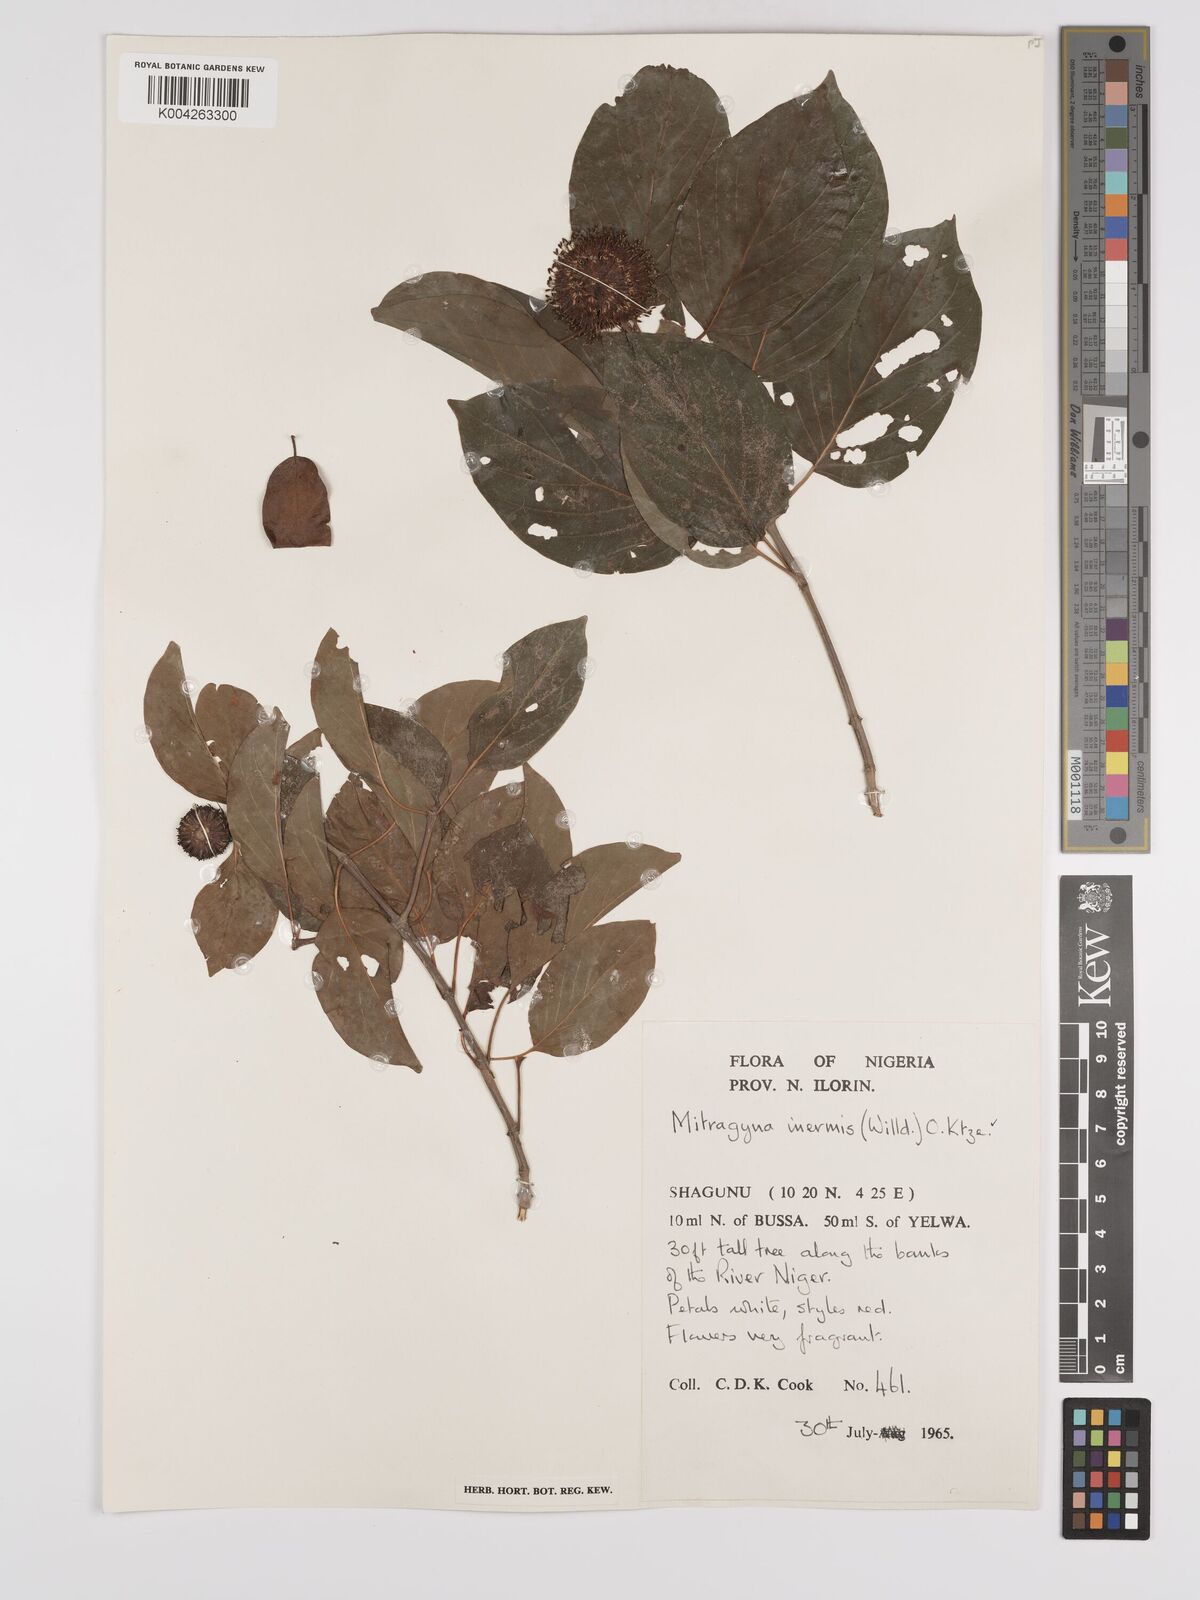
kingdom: Plantae
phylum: Tracheophyta
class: Magnoliopsida
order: Gentianales
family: Rubiaceae
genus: Mitragyna
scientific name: Mitragyna inermis
